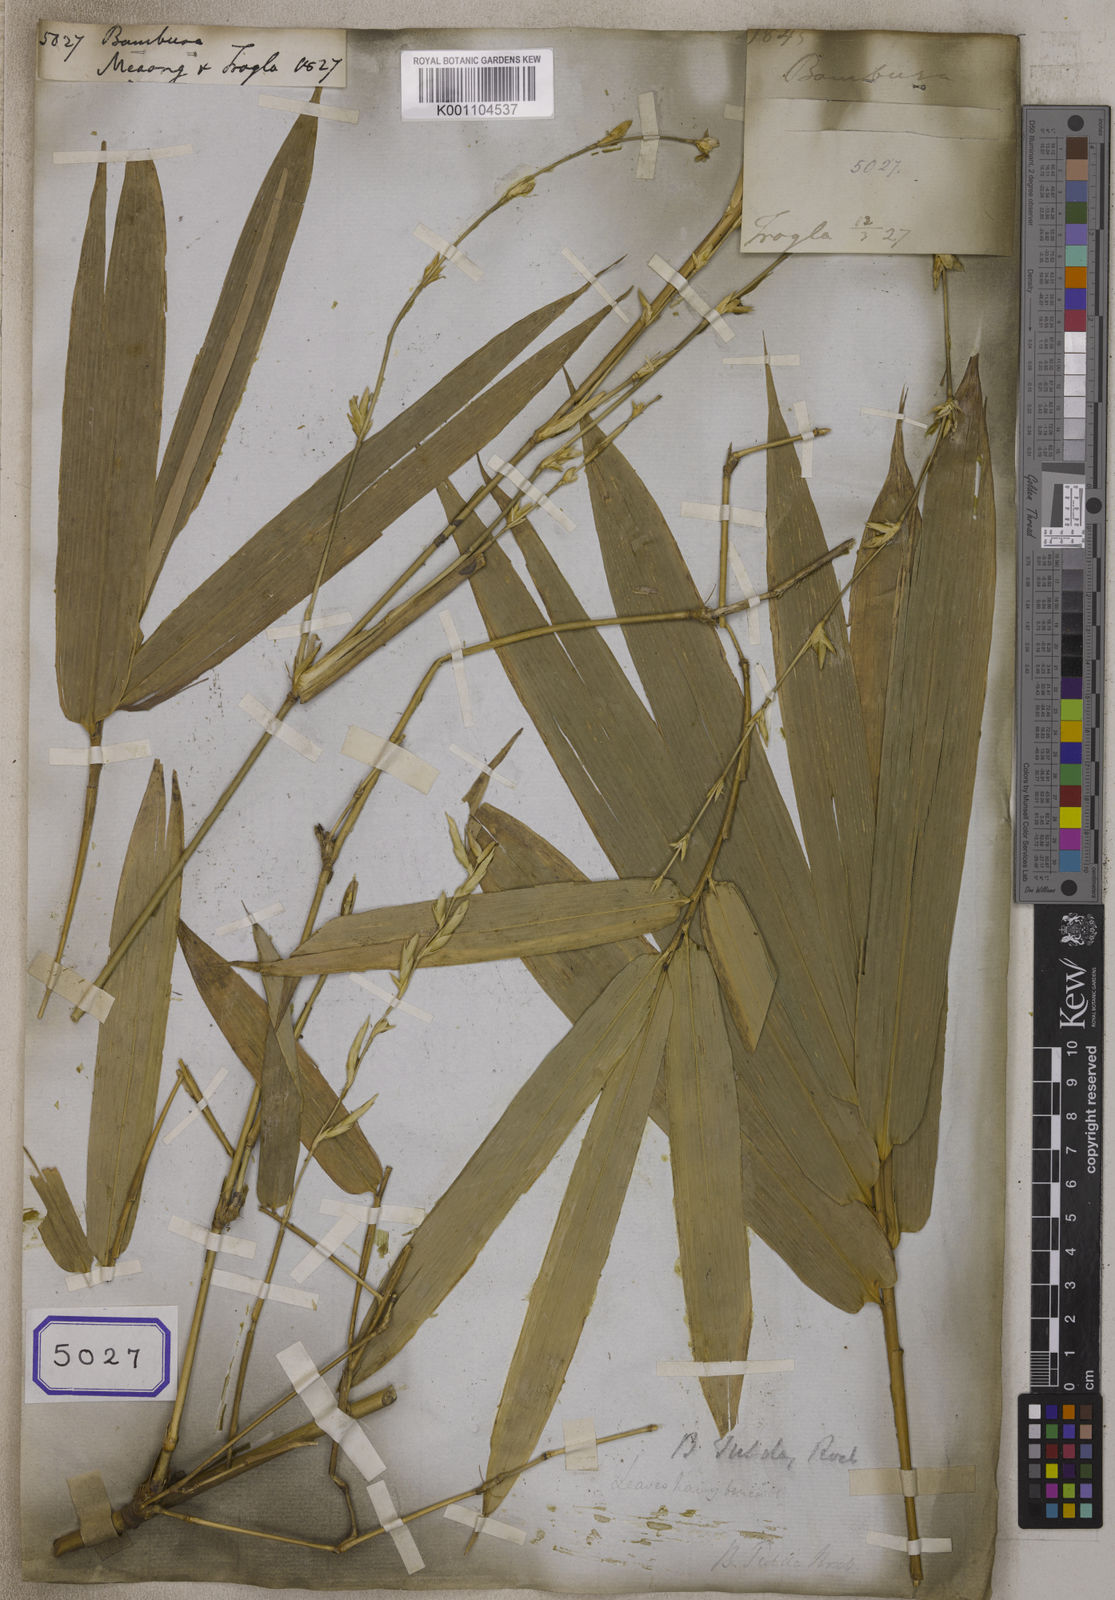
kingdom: Plantae
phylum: Tracheophyta
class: Liliopsida
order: Poales
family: Poaceae
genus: Bambusa
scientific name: Bambusa
